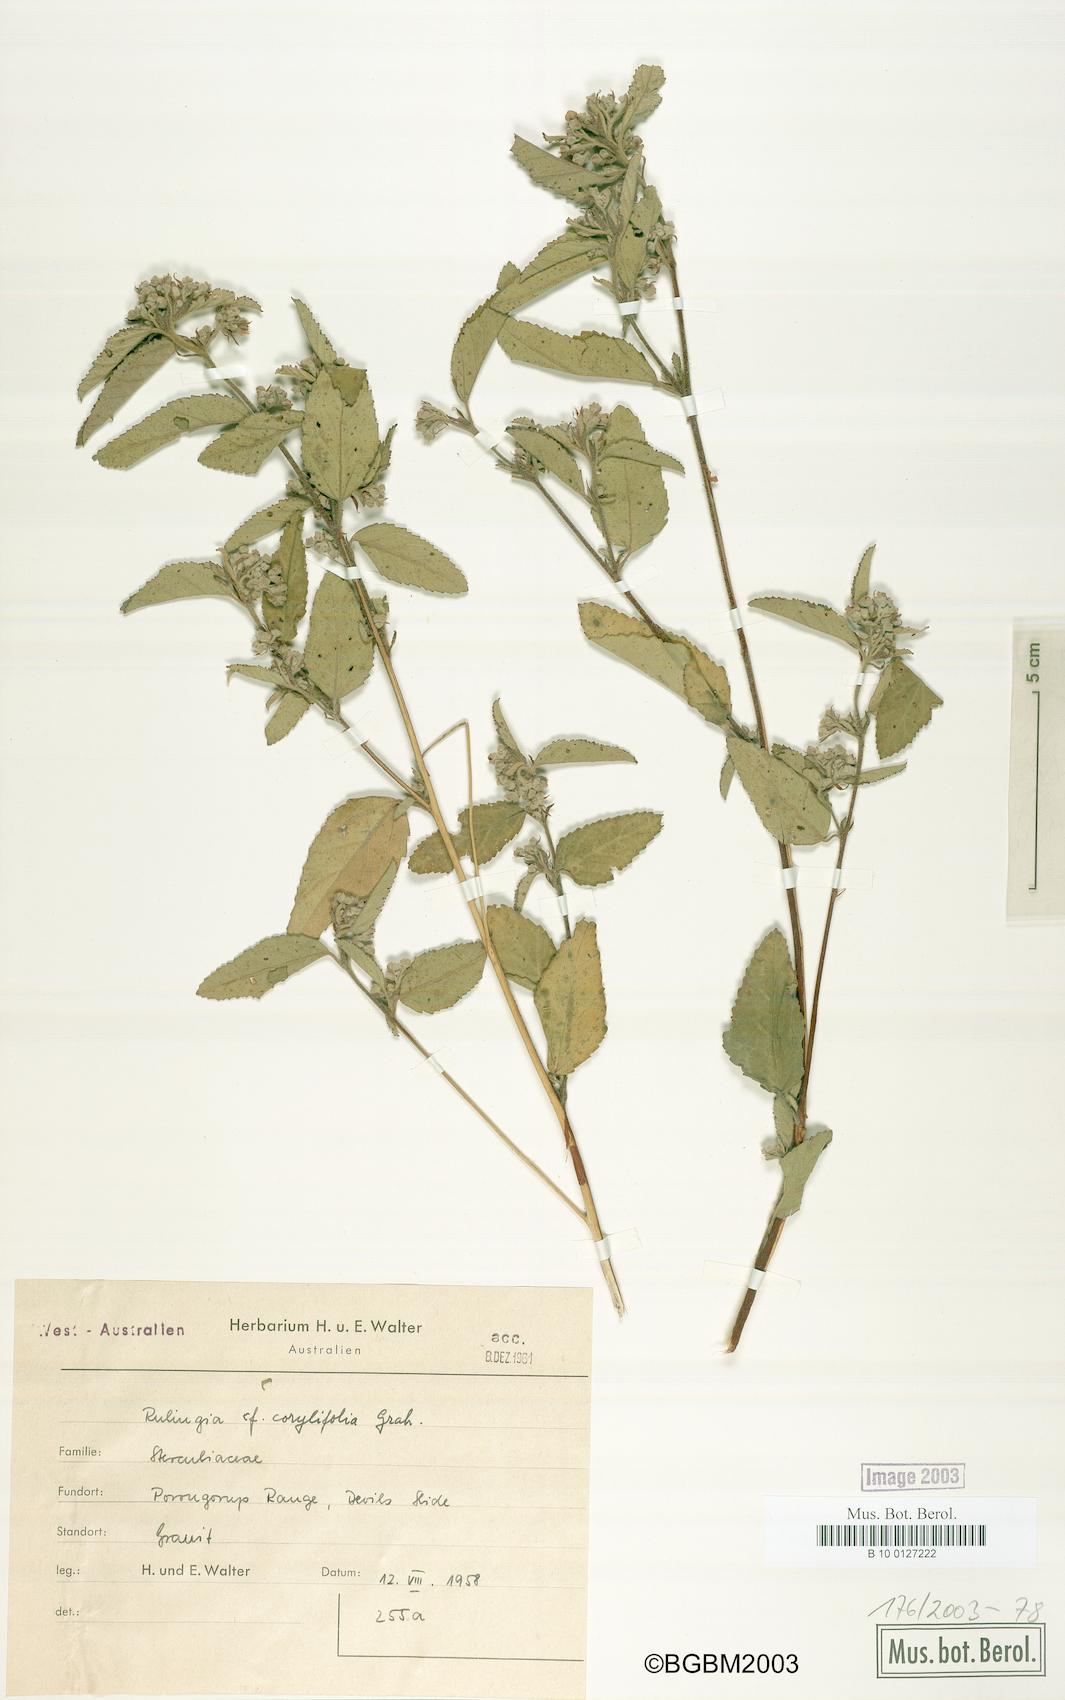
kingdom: Plantae
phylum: Tracheophyta
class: Magnoliopsida
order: Malvales
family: Malvaceae
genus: Commersonia
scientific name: Commersonia corylifolia
